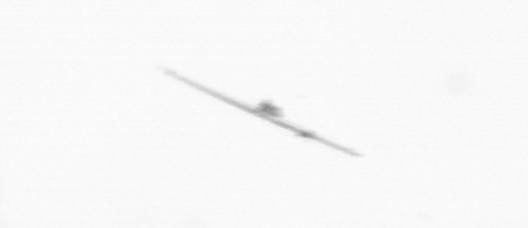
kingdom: Chromista
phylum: Ochrophyta
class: Bacillariophyceae
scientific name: Bacillariophyceae
